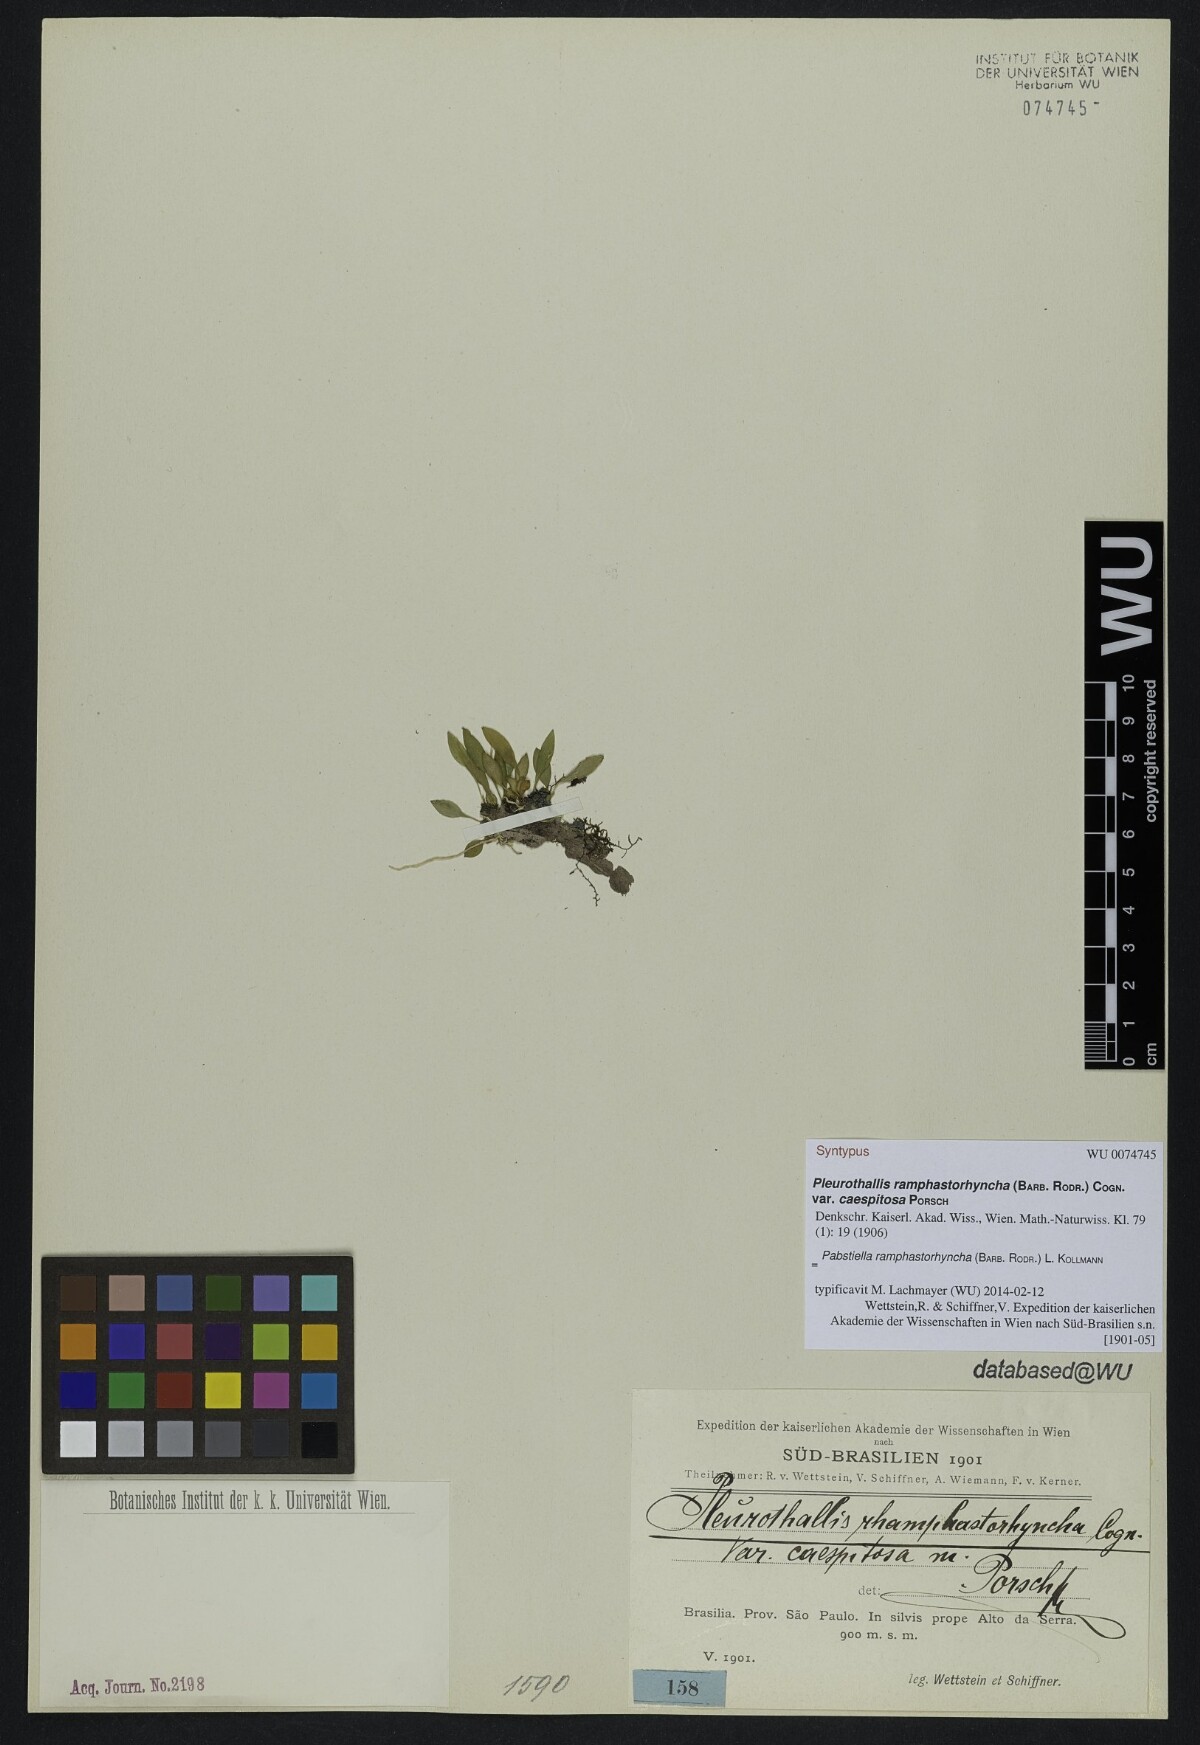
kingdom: Plantae
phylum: Tracheophyta
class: Liliopsida
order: Asparagales
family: Orchidaceae
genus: Pabstiella
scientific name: Pabstiella ramphastorhyncha
